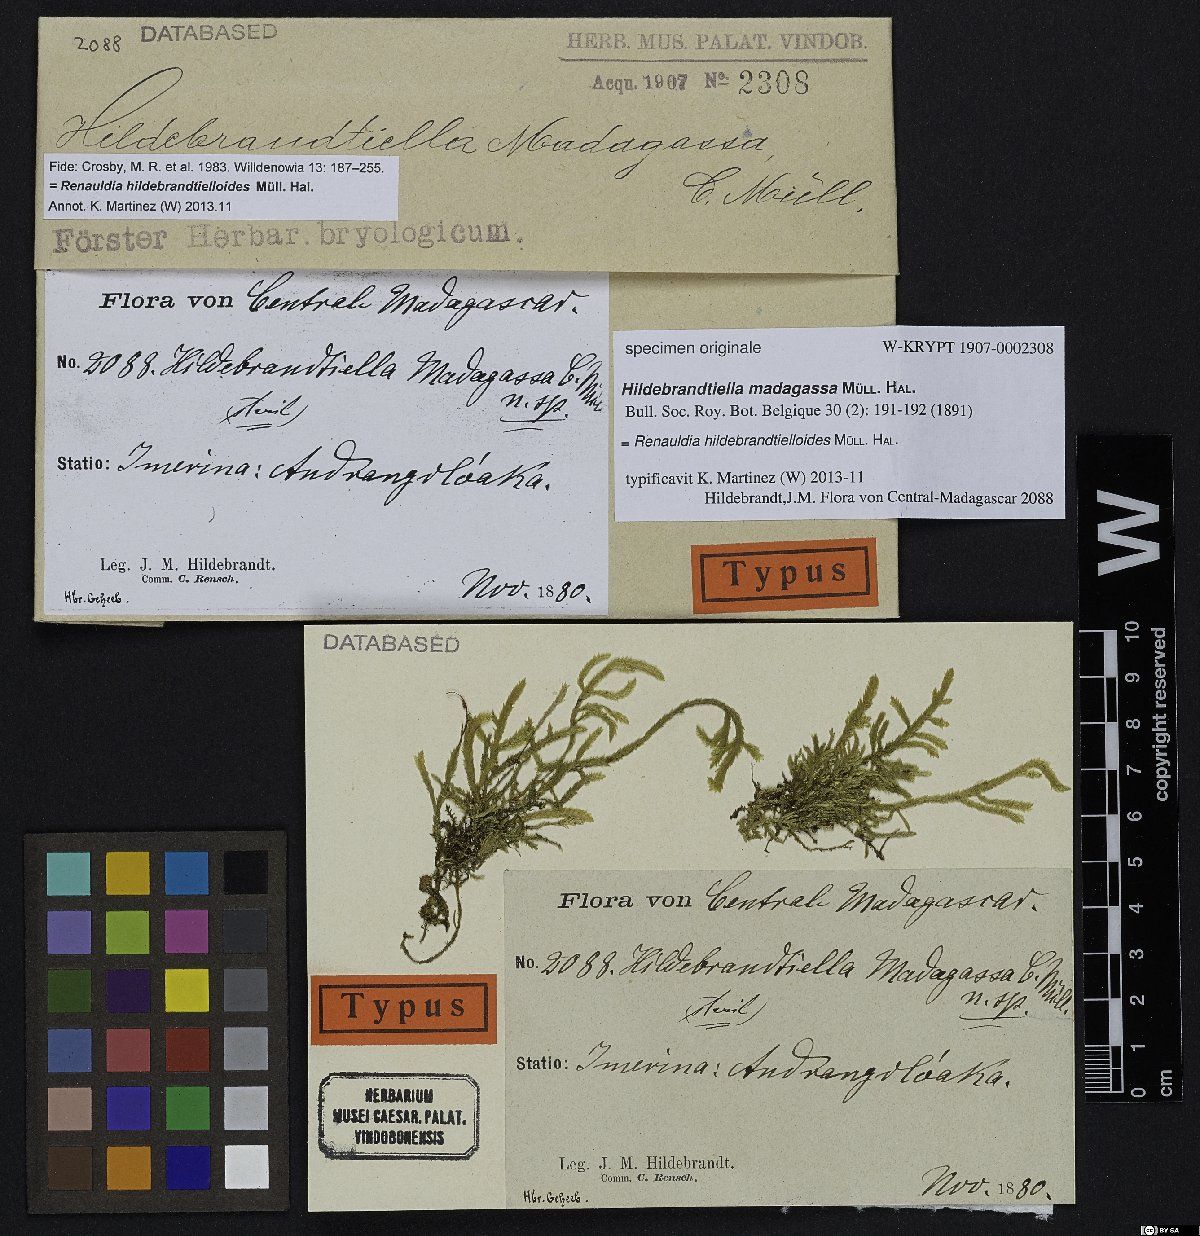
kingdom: Plantae
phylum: Bryophyta
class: Bryopsida
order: Hypnales
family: Pterobryaceae
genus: Hildebrandtiella
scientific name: Hildebrandtiella
